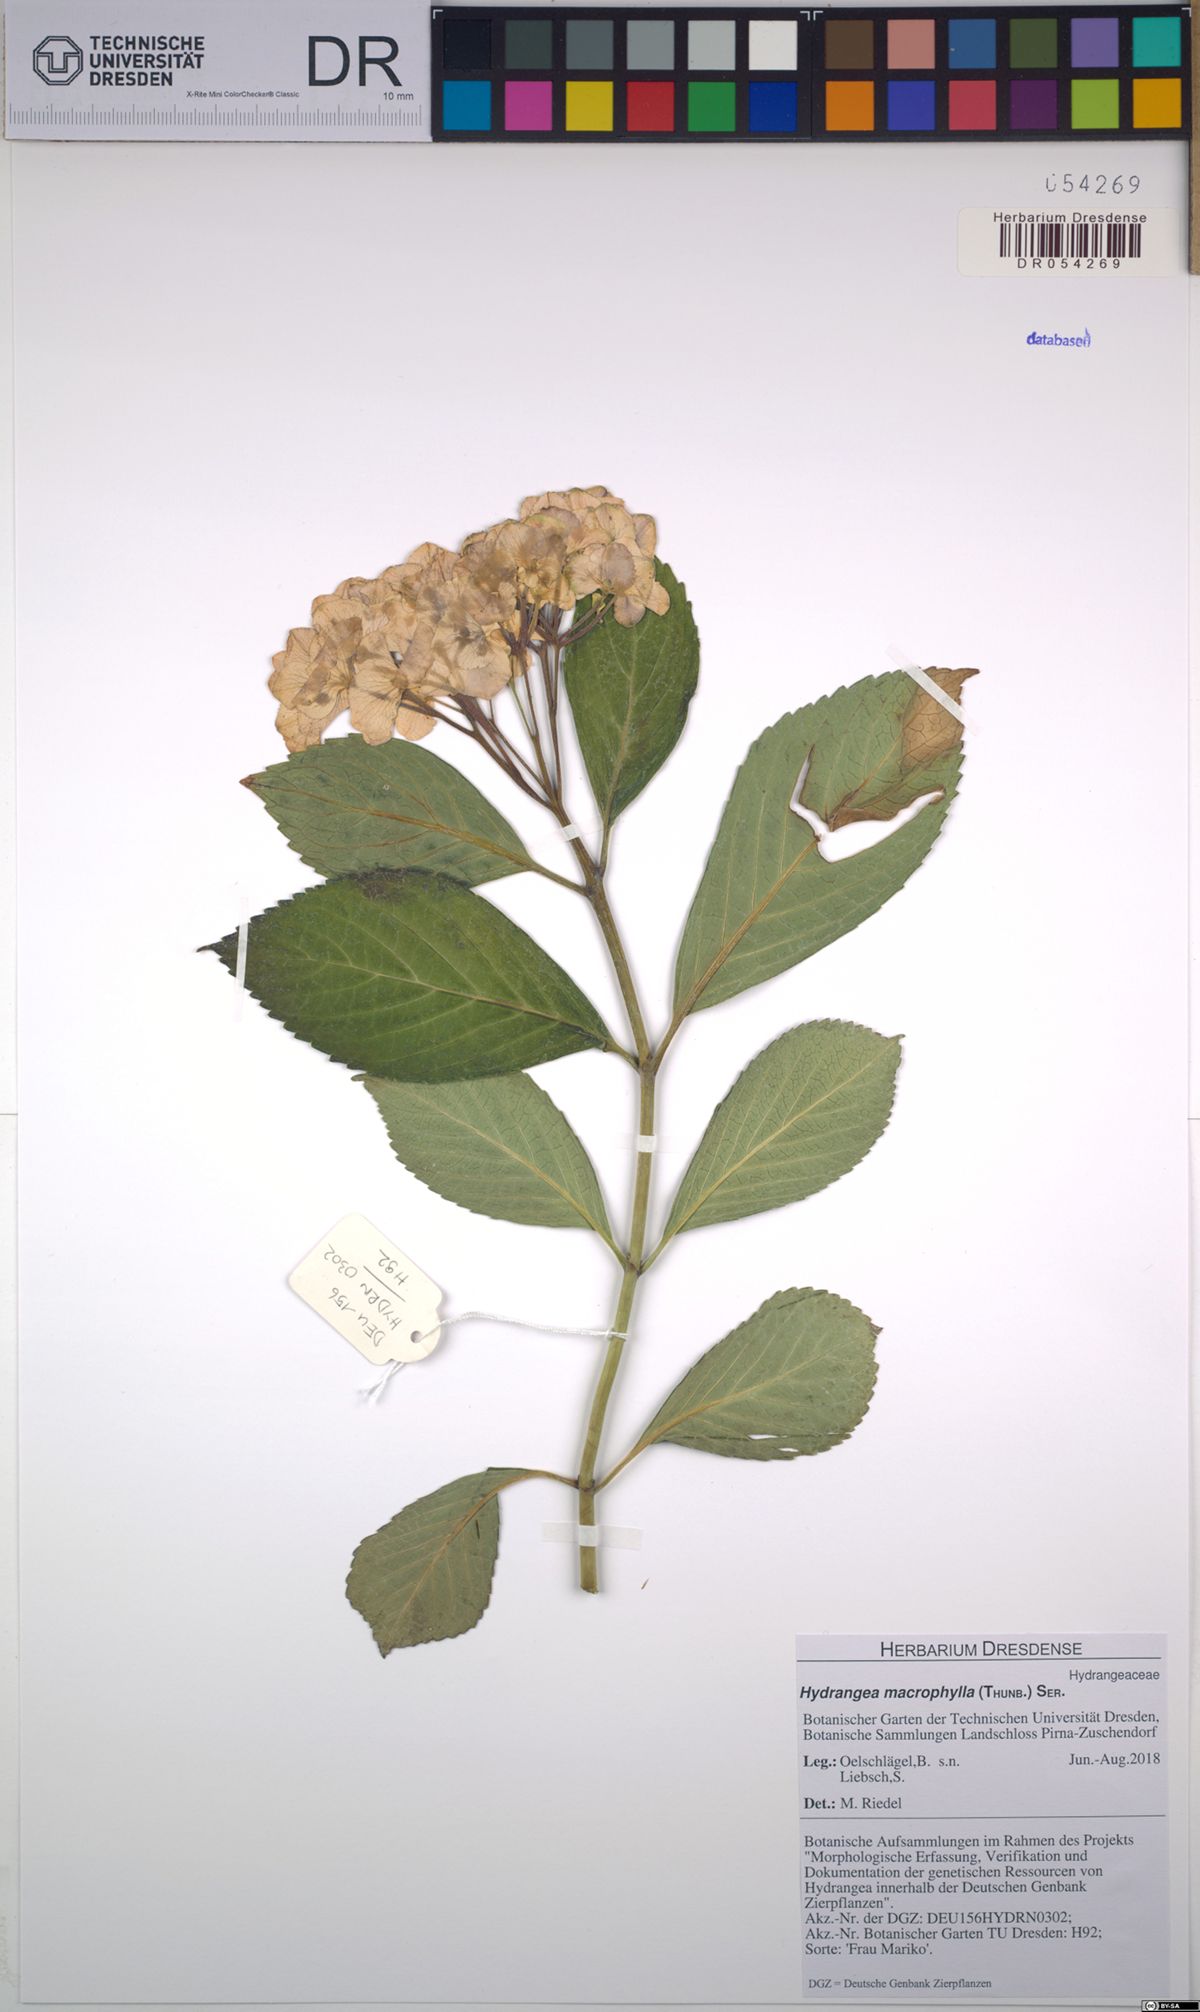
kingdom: Plantae
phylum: Tracheophyta
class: Magnoliopsida
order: Cornales
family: Hydrangeaceae
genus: Hydrangea
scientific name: Hydrangea macrophylla
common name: Hydrangea
